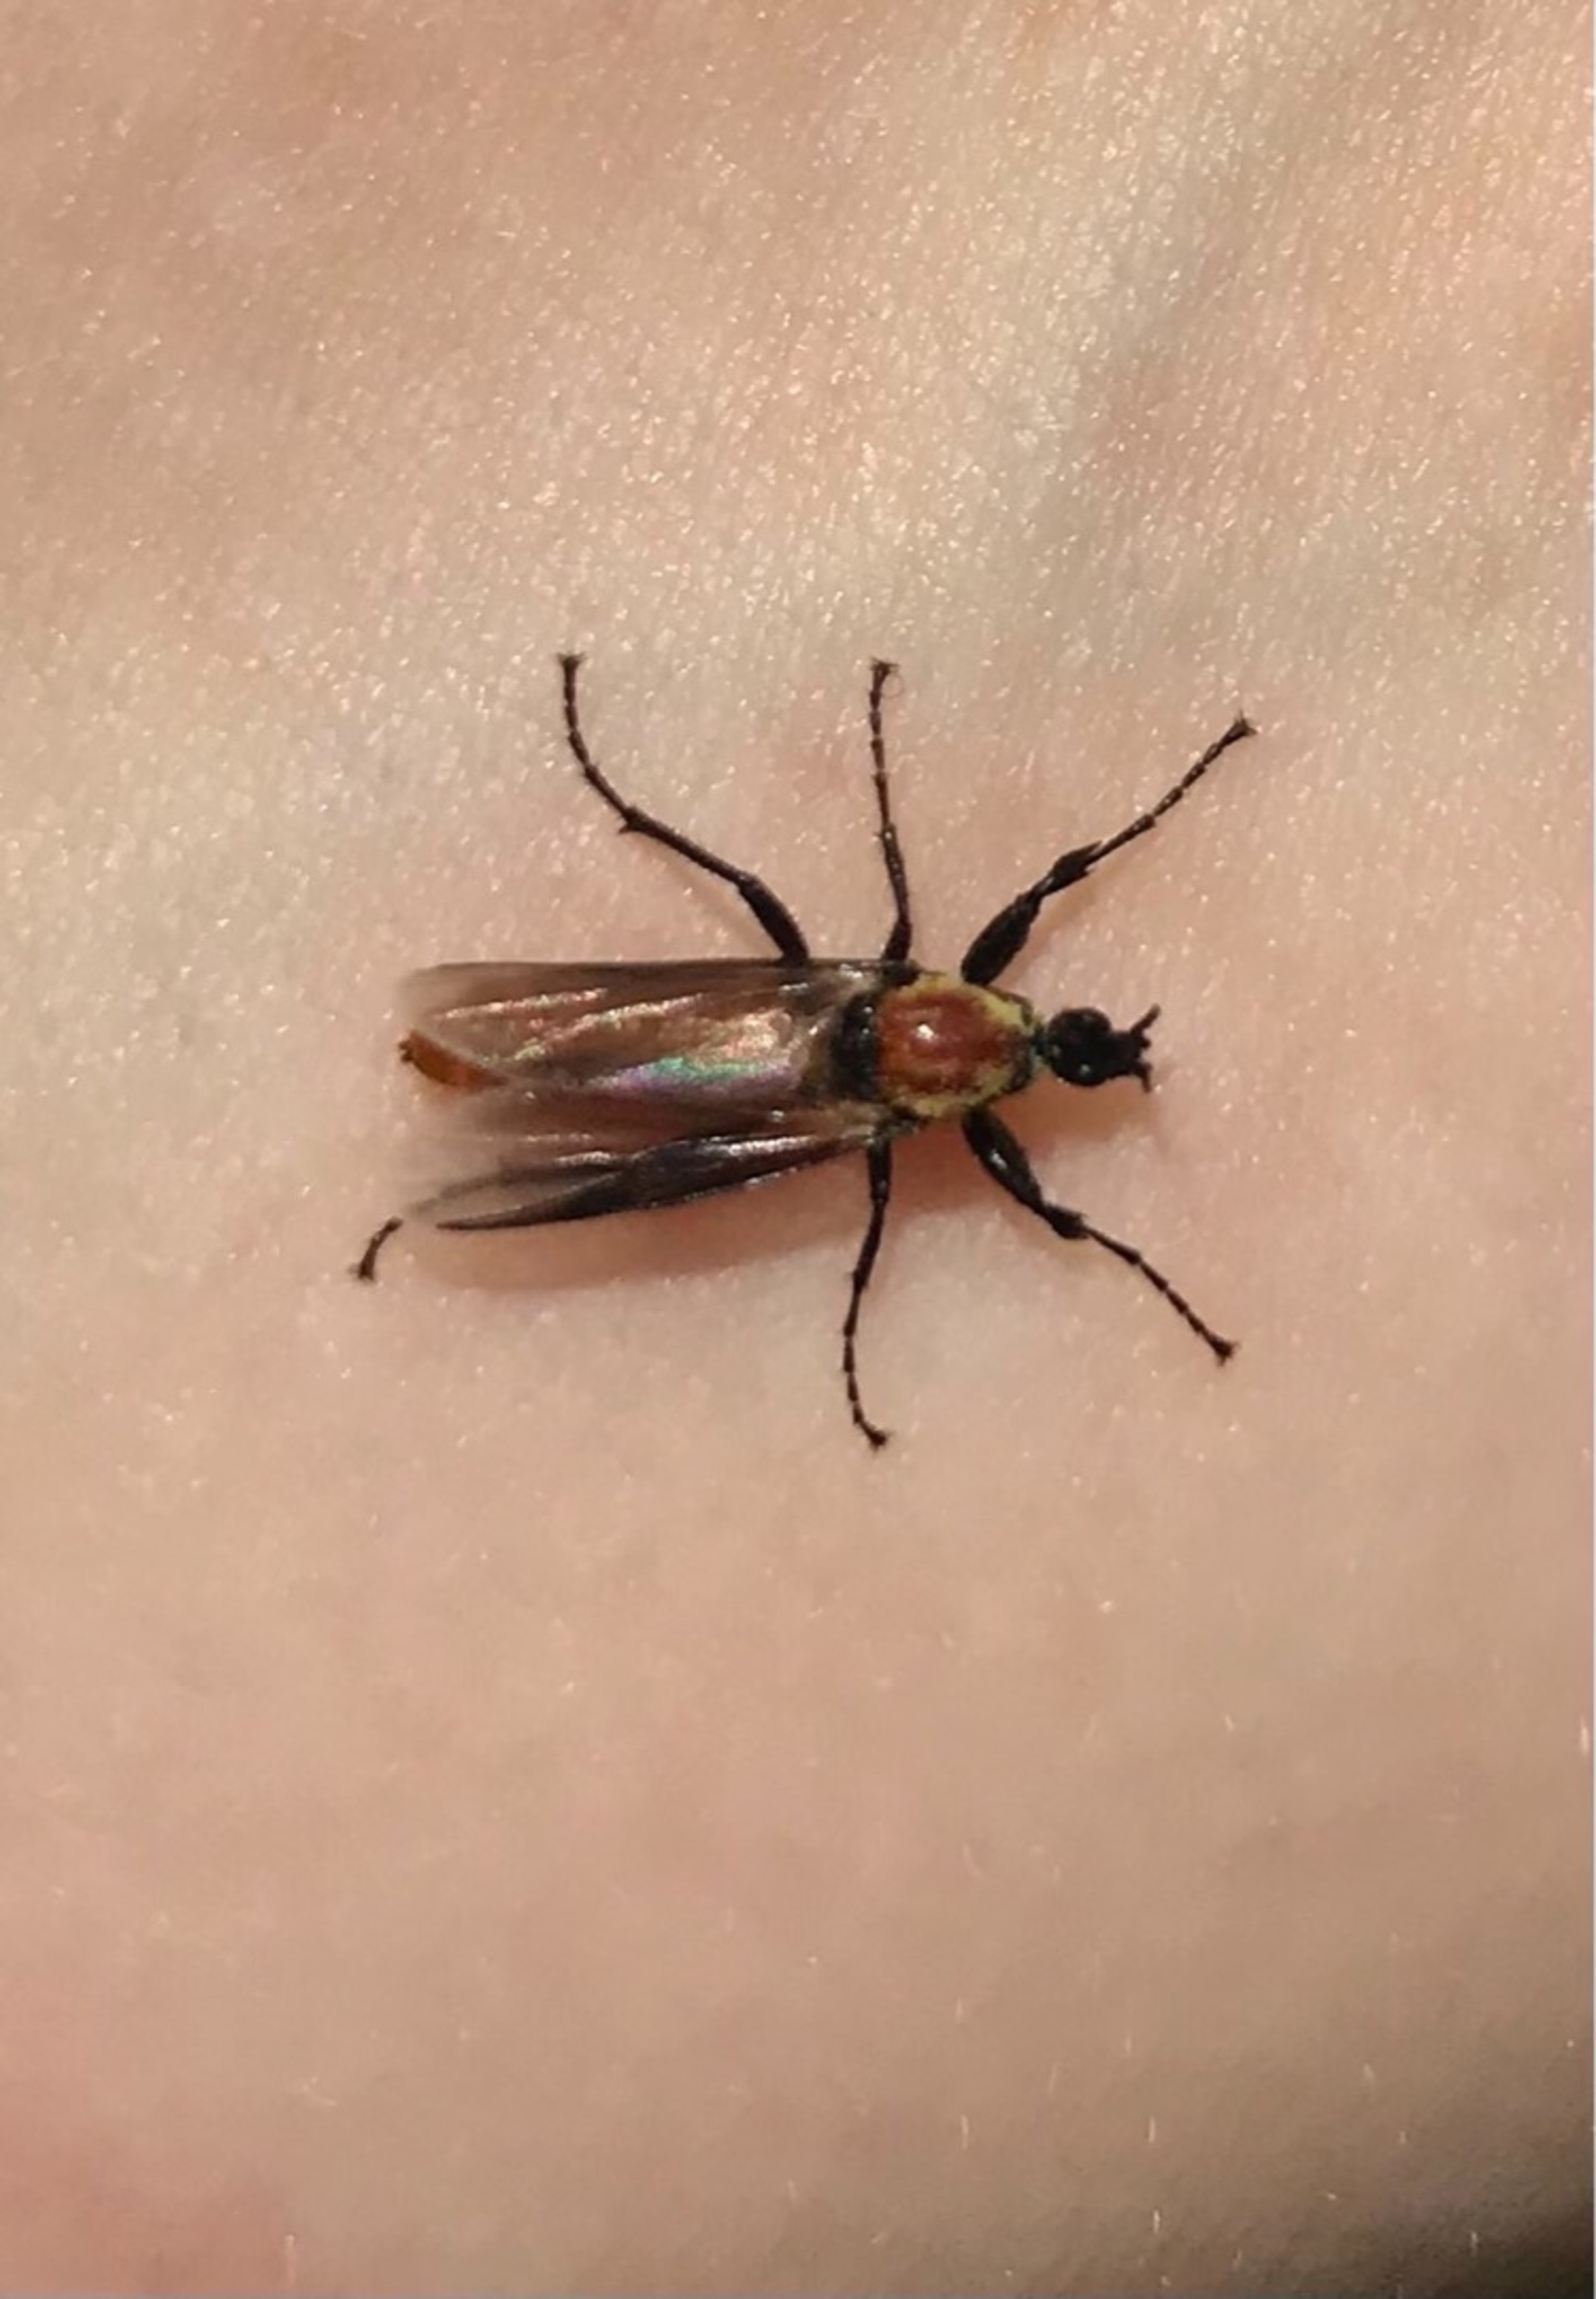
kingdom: Animalia
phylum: Arthropoda
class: Insecta
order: Diptera
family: Bibionidae
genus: Bibio
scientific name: Bibio hortulanus
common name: Havehårmyg
